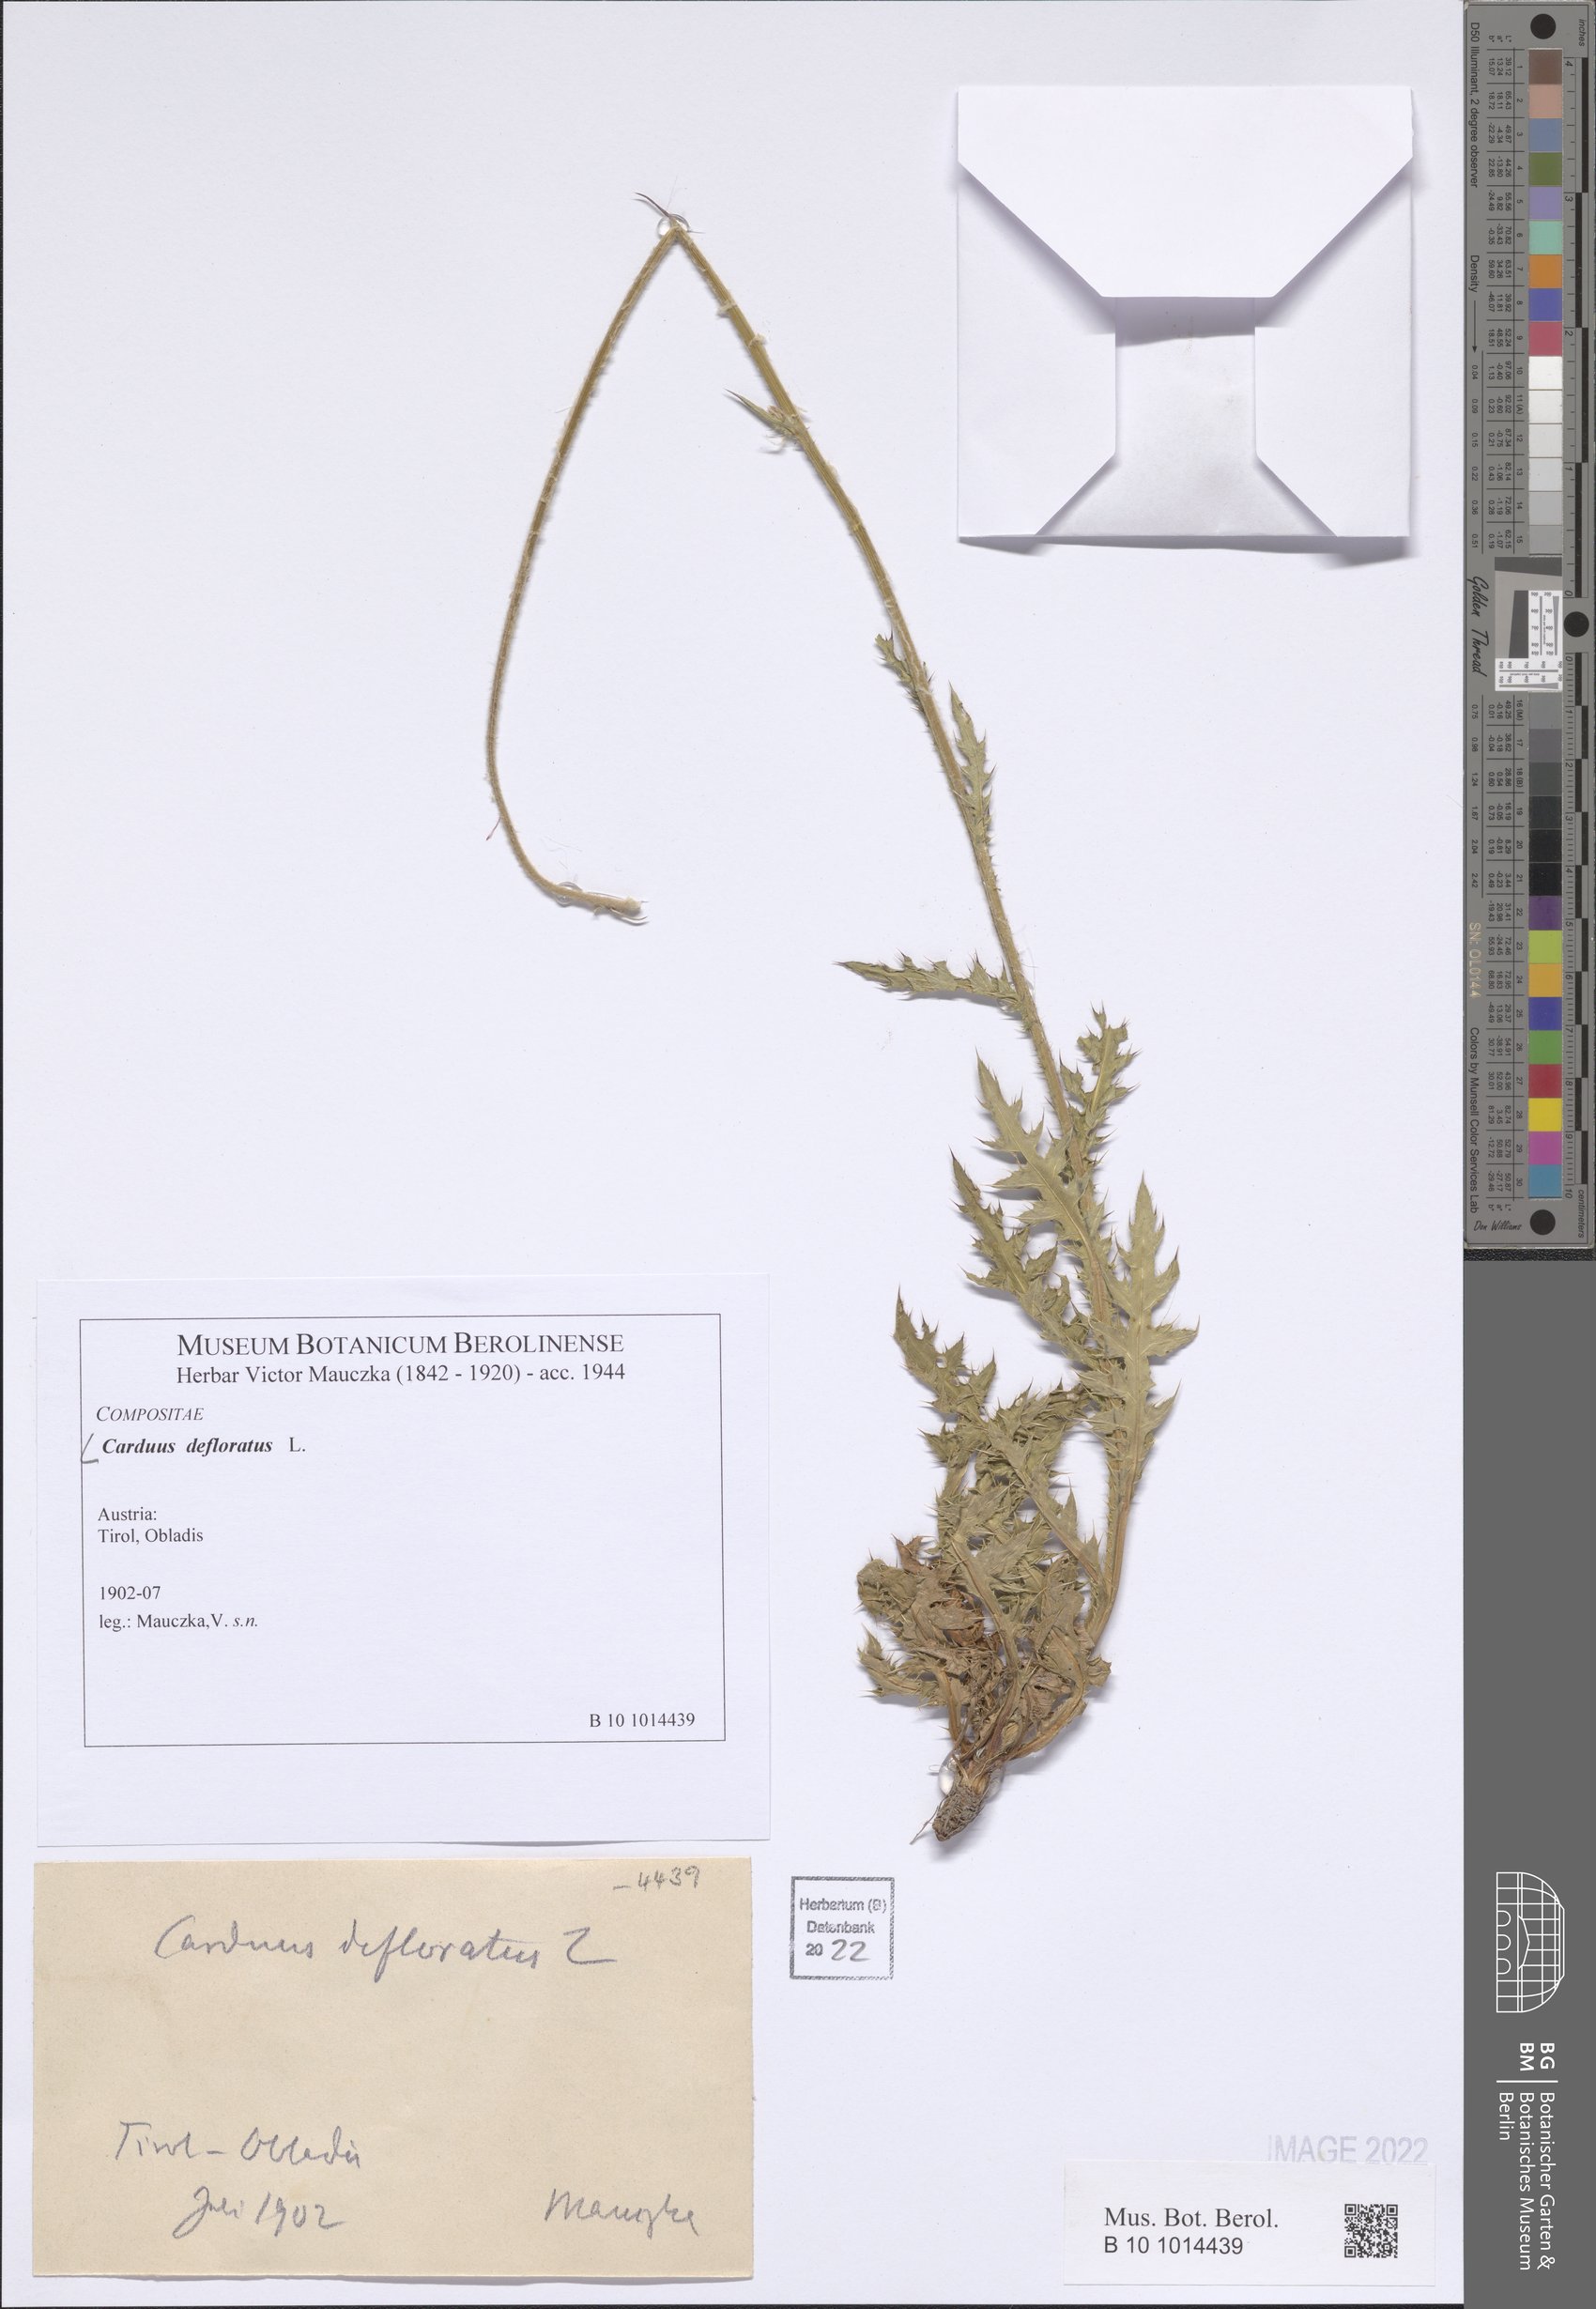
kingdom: Plantae
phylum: Tracheophyta
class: Magnoliopsida
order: Asterales
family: Asteraceae
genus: Carduus
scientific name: Carduus defloratus
